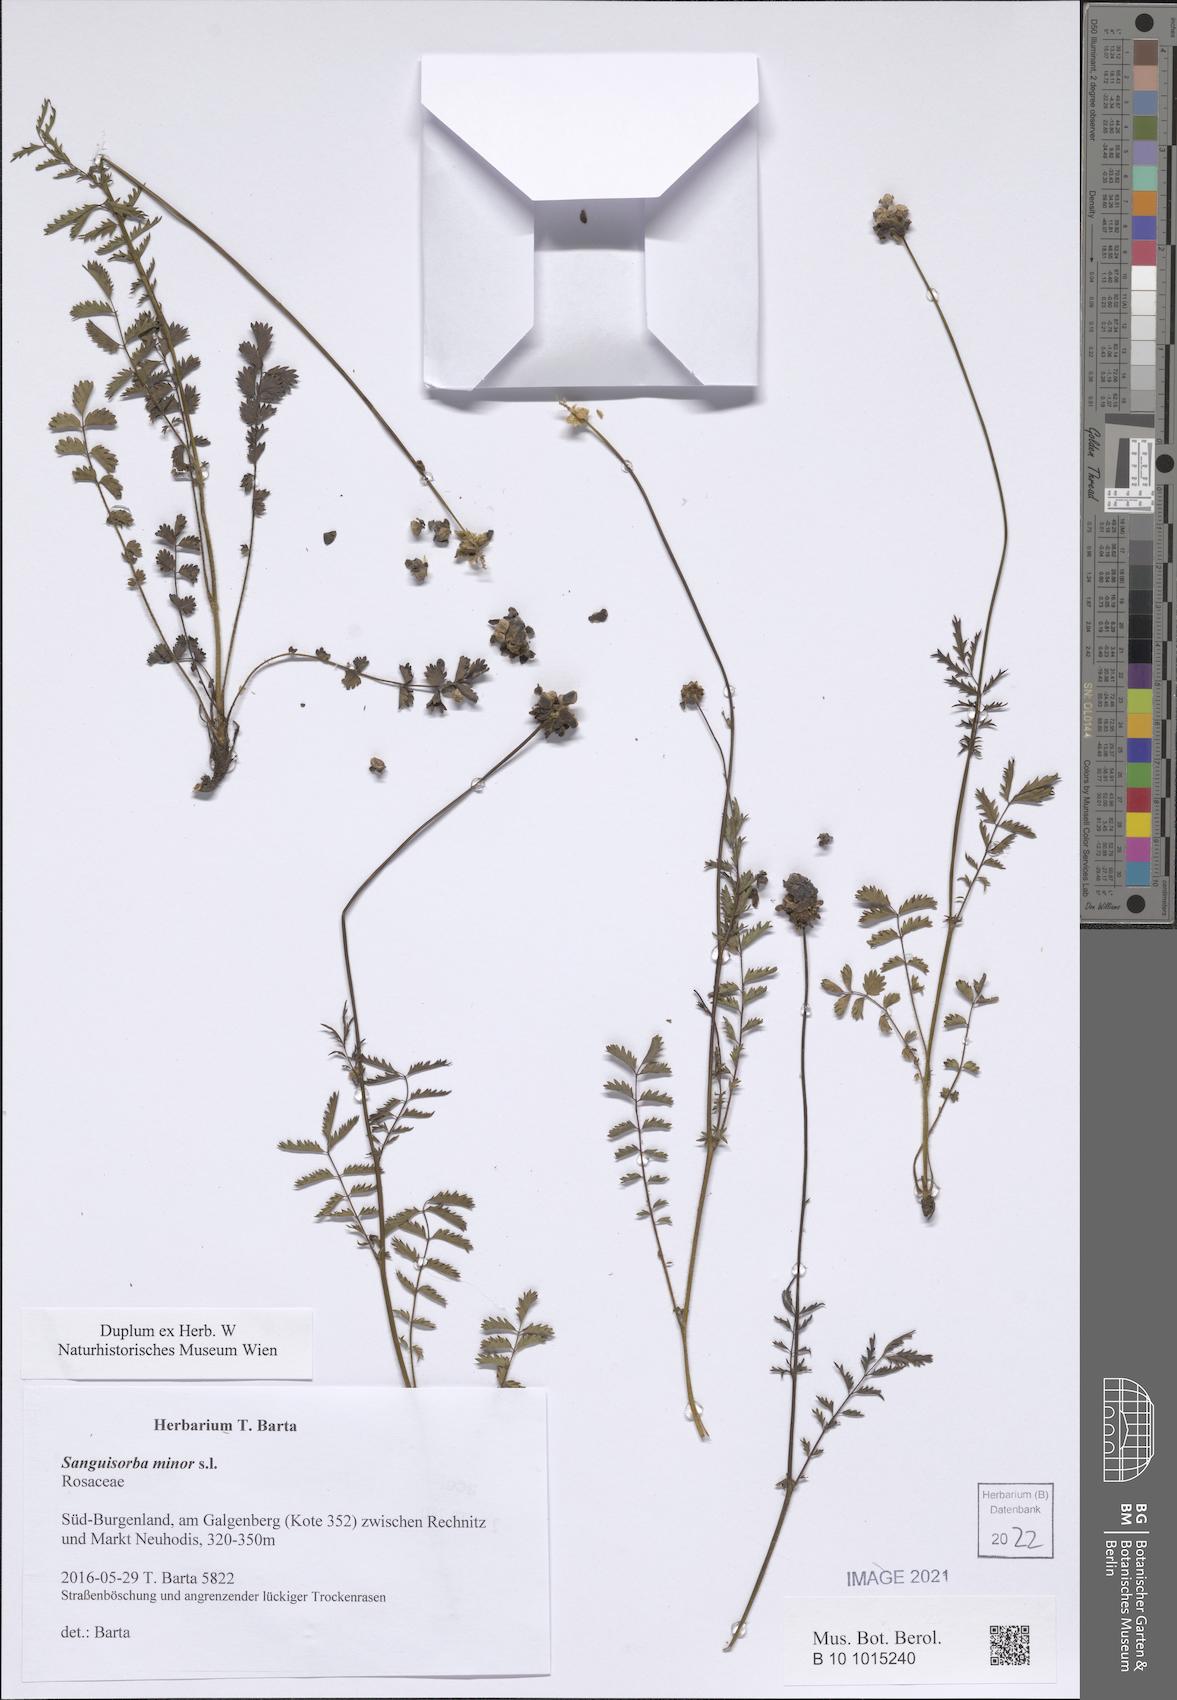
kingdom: Plantae
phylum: Tracheophyta
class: Magnoliopsida
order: Rosales
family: Rosaceae
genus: Poterium
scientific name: Poterium sanguisorba
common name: Salad burnet
